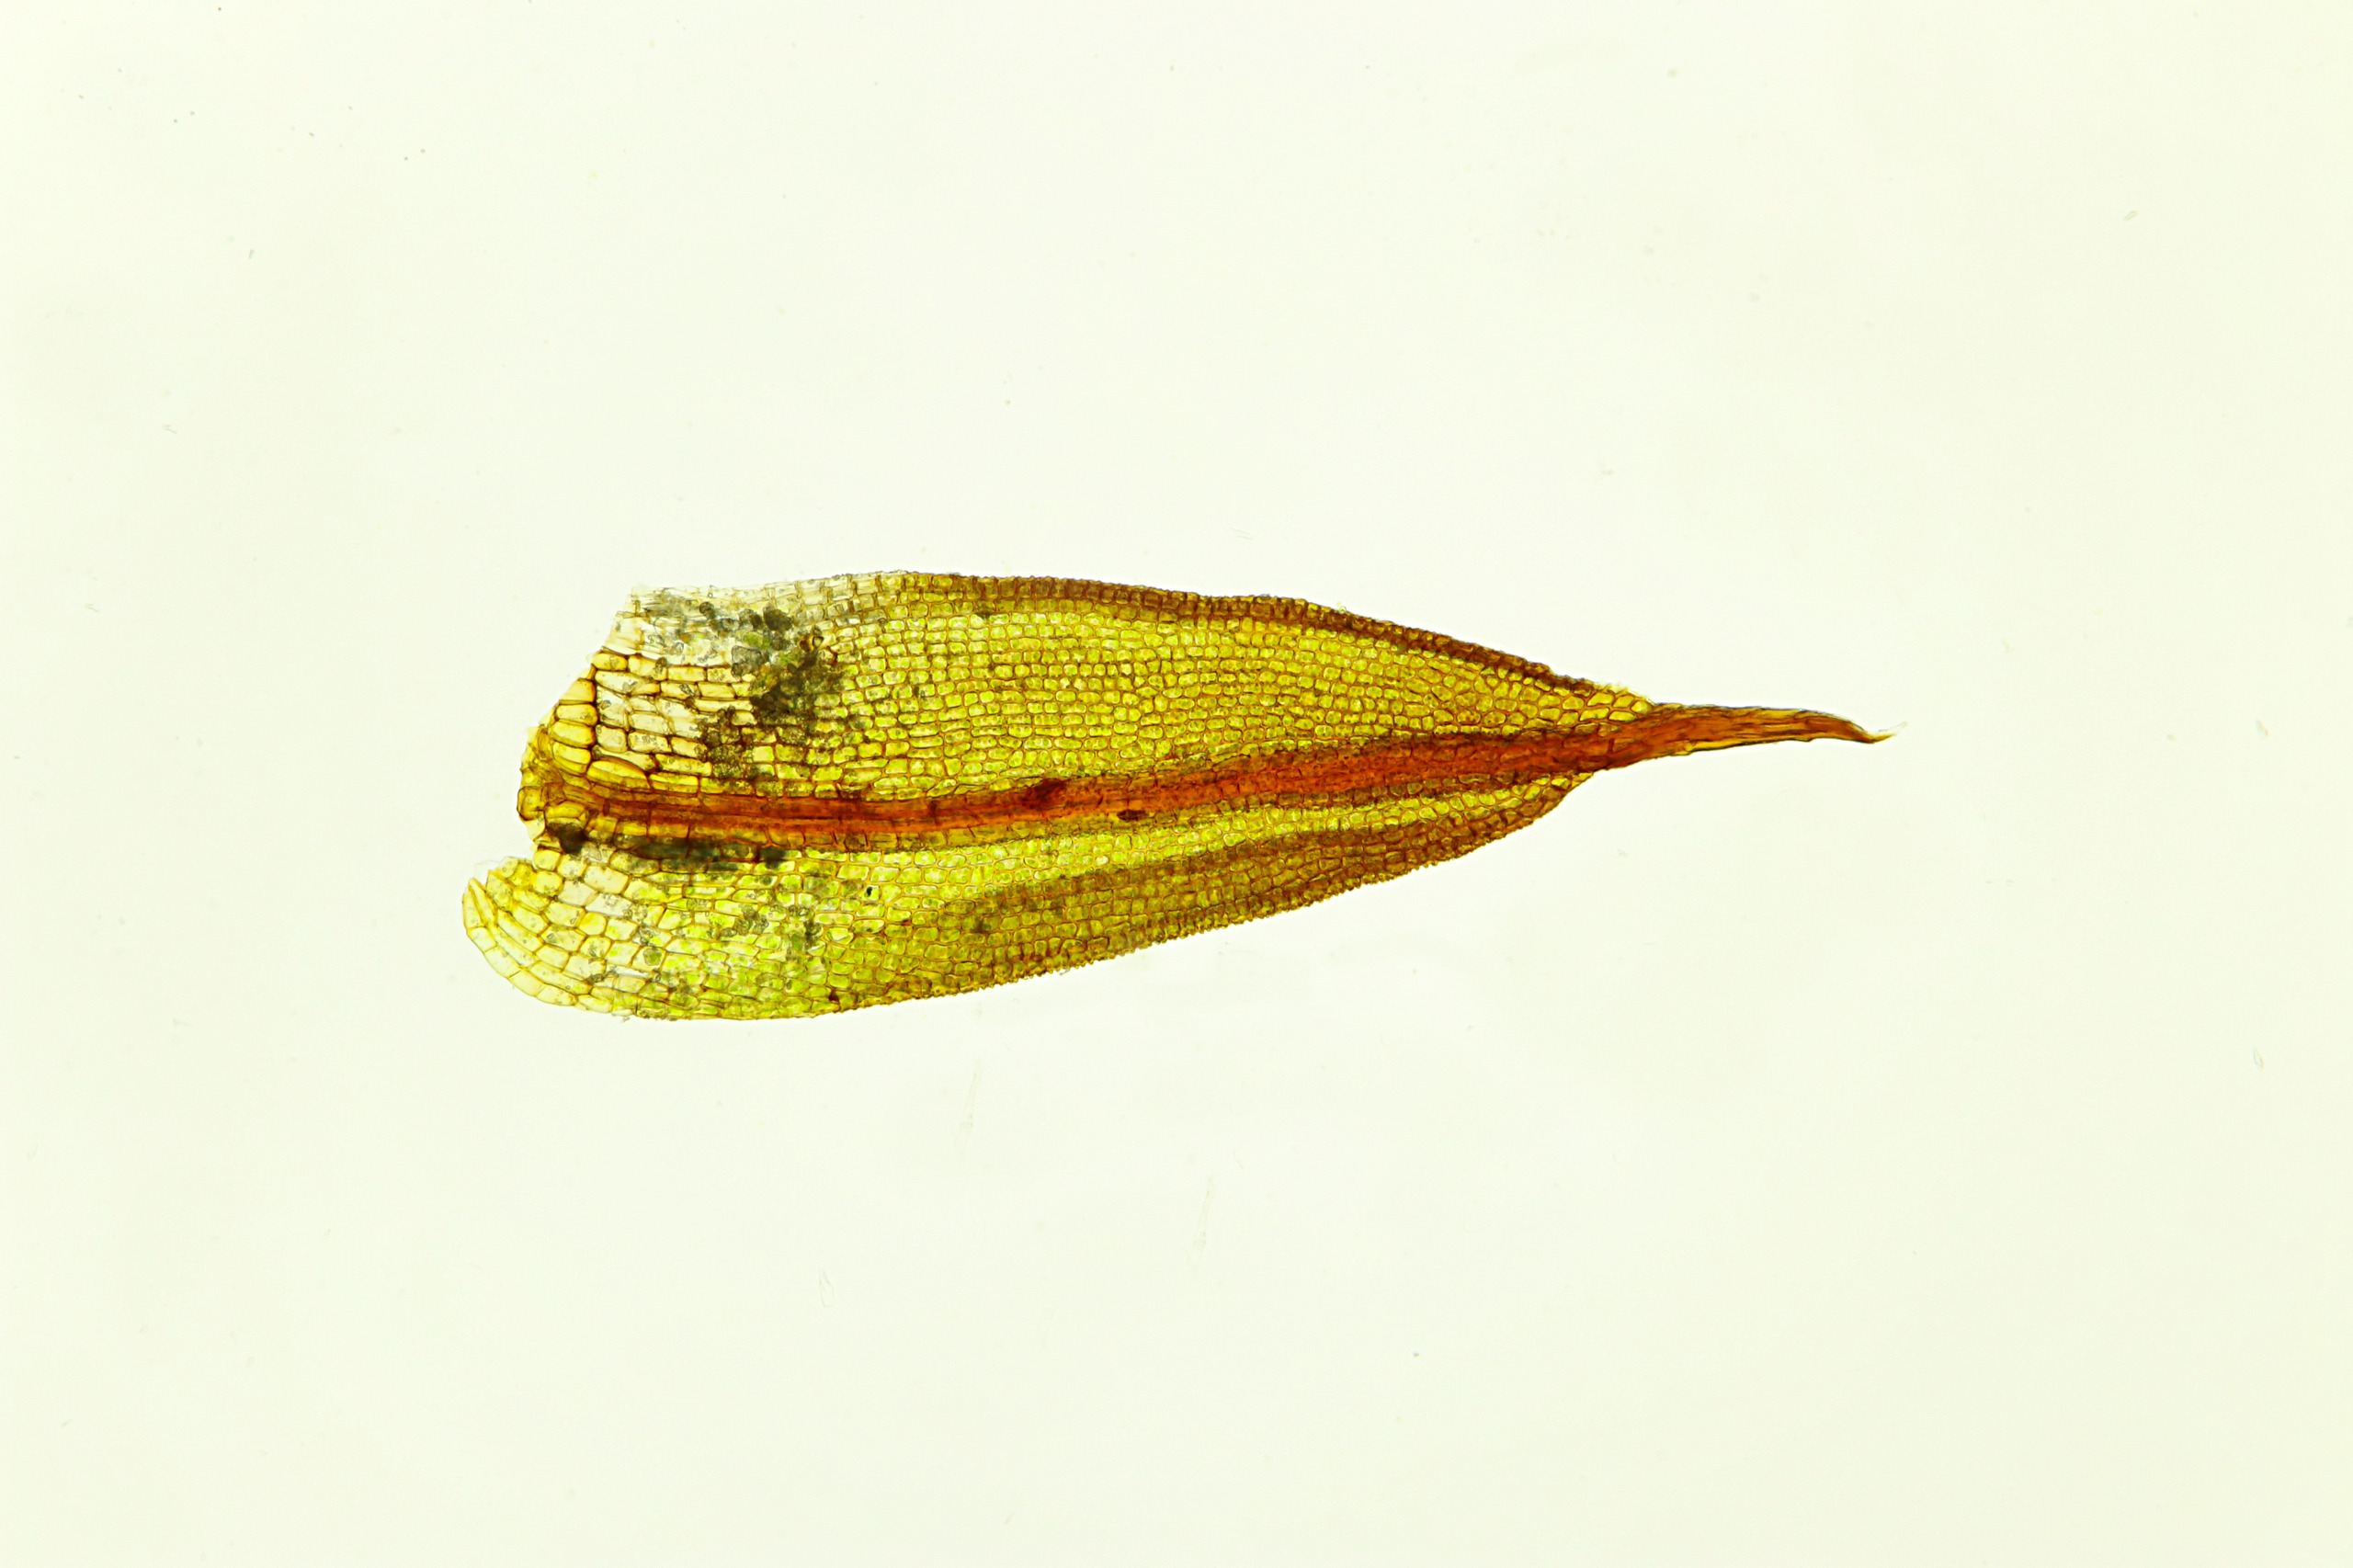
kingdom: Plantae
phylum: Bryophyta
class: Bryopsida
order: Pottiales
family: Pottiaceae
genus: Microbryum
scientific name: Microbryum davallianum
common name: Roset-småmos
